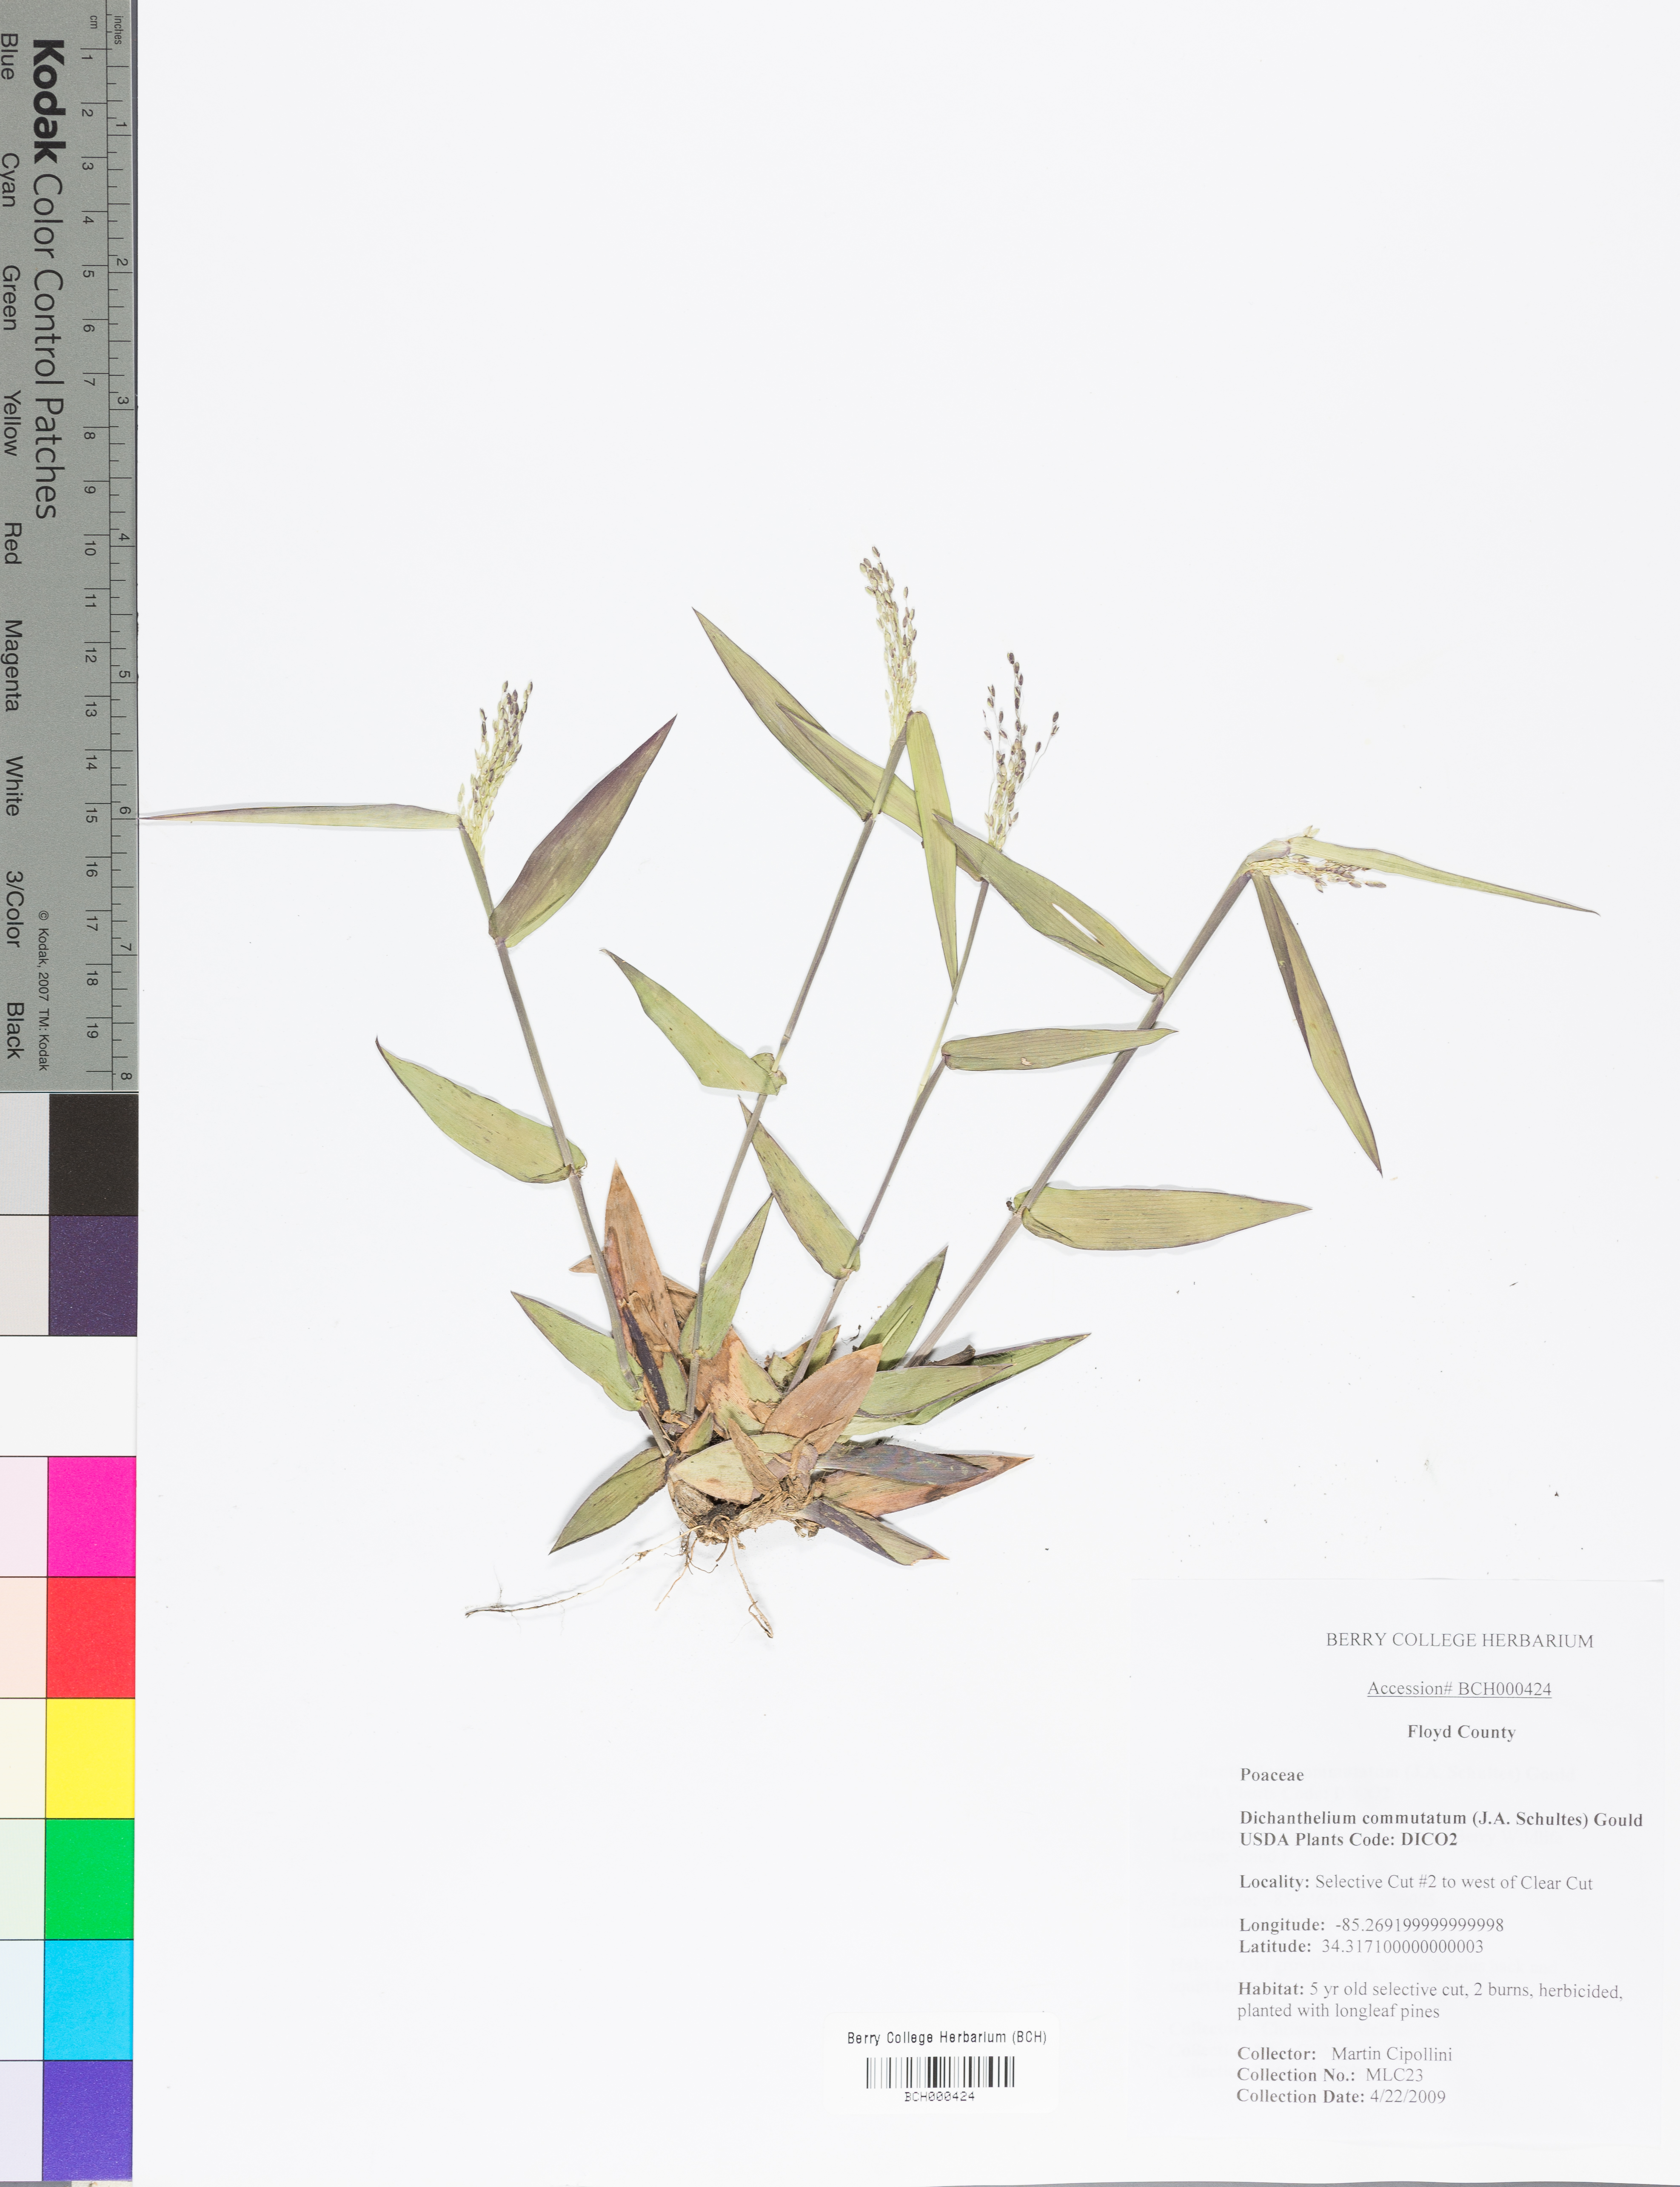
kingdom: Plantae
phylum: Tracheophyta
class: Liliopsida
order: Poales
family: Poaceae
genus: Dichanthelium
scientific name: Dichanthelium commutatum
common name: Variable witchgrass
